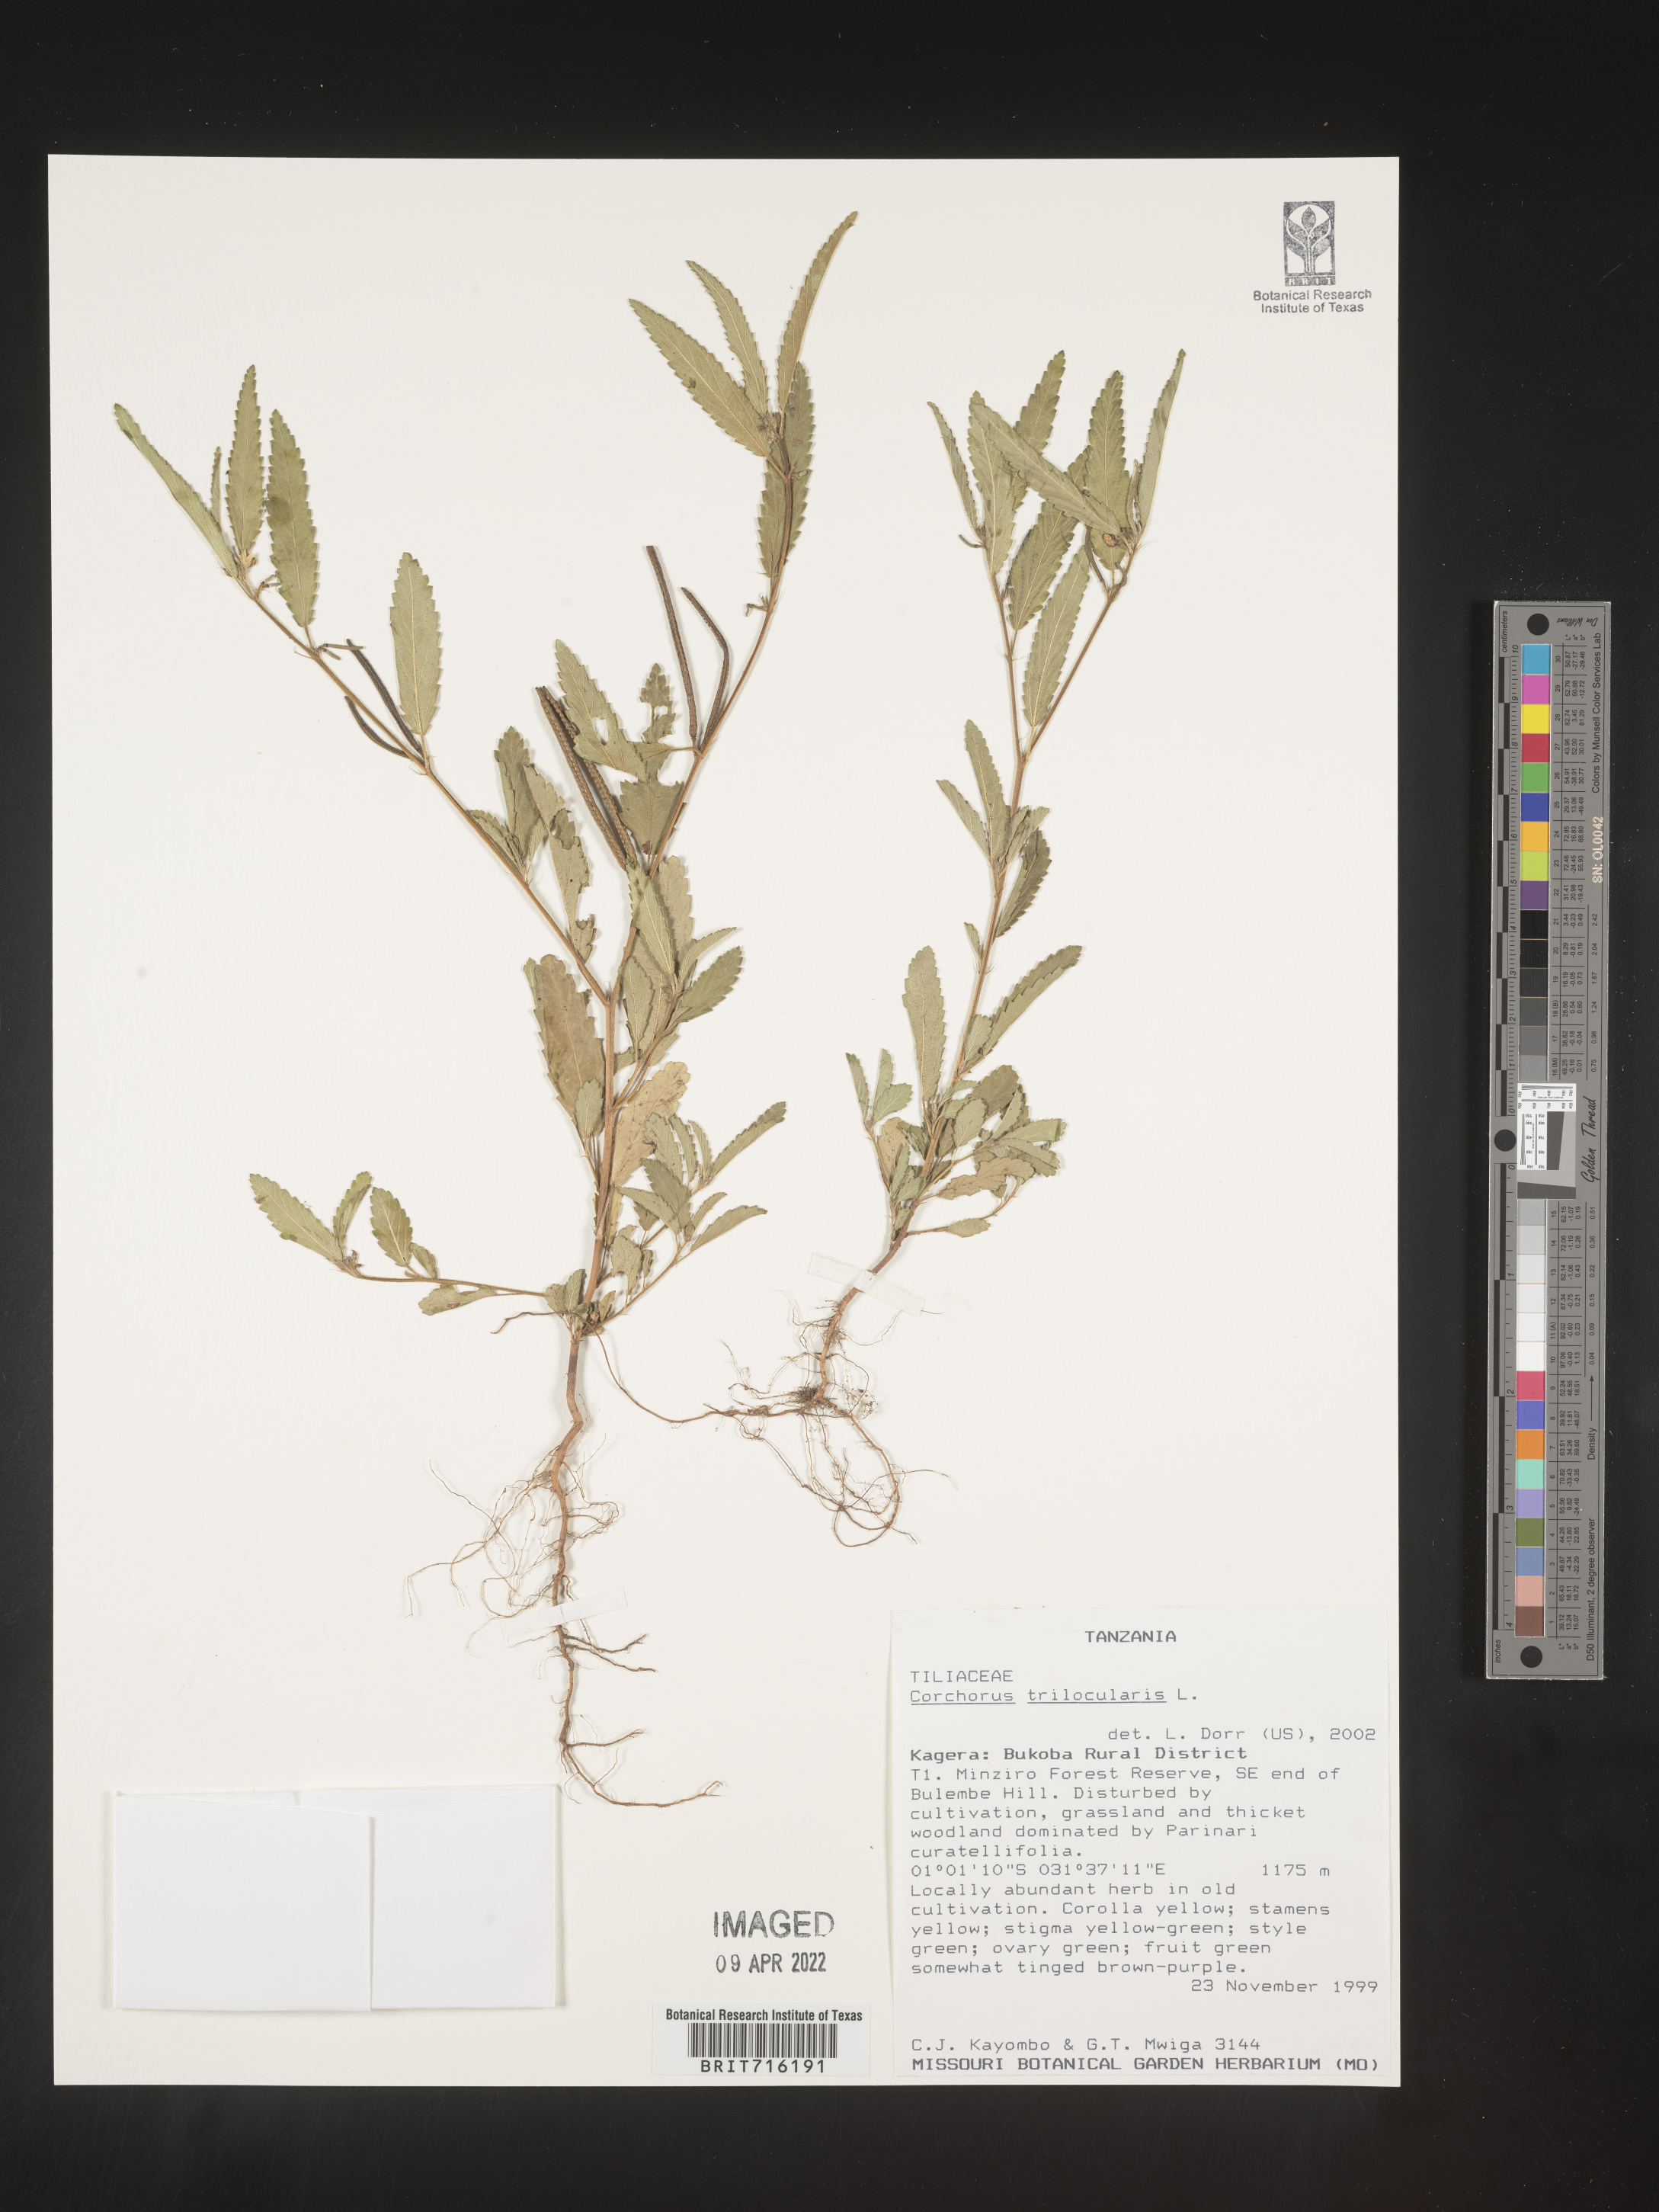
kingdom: Plantae
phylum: Tracheophyta
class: Magnoliopsida
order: Malvales
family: Malvaceae
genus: Corchorus
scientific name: Corchorus
